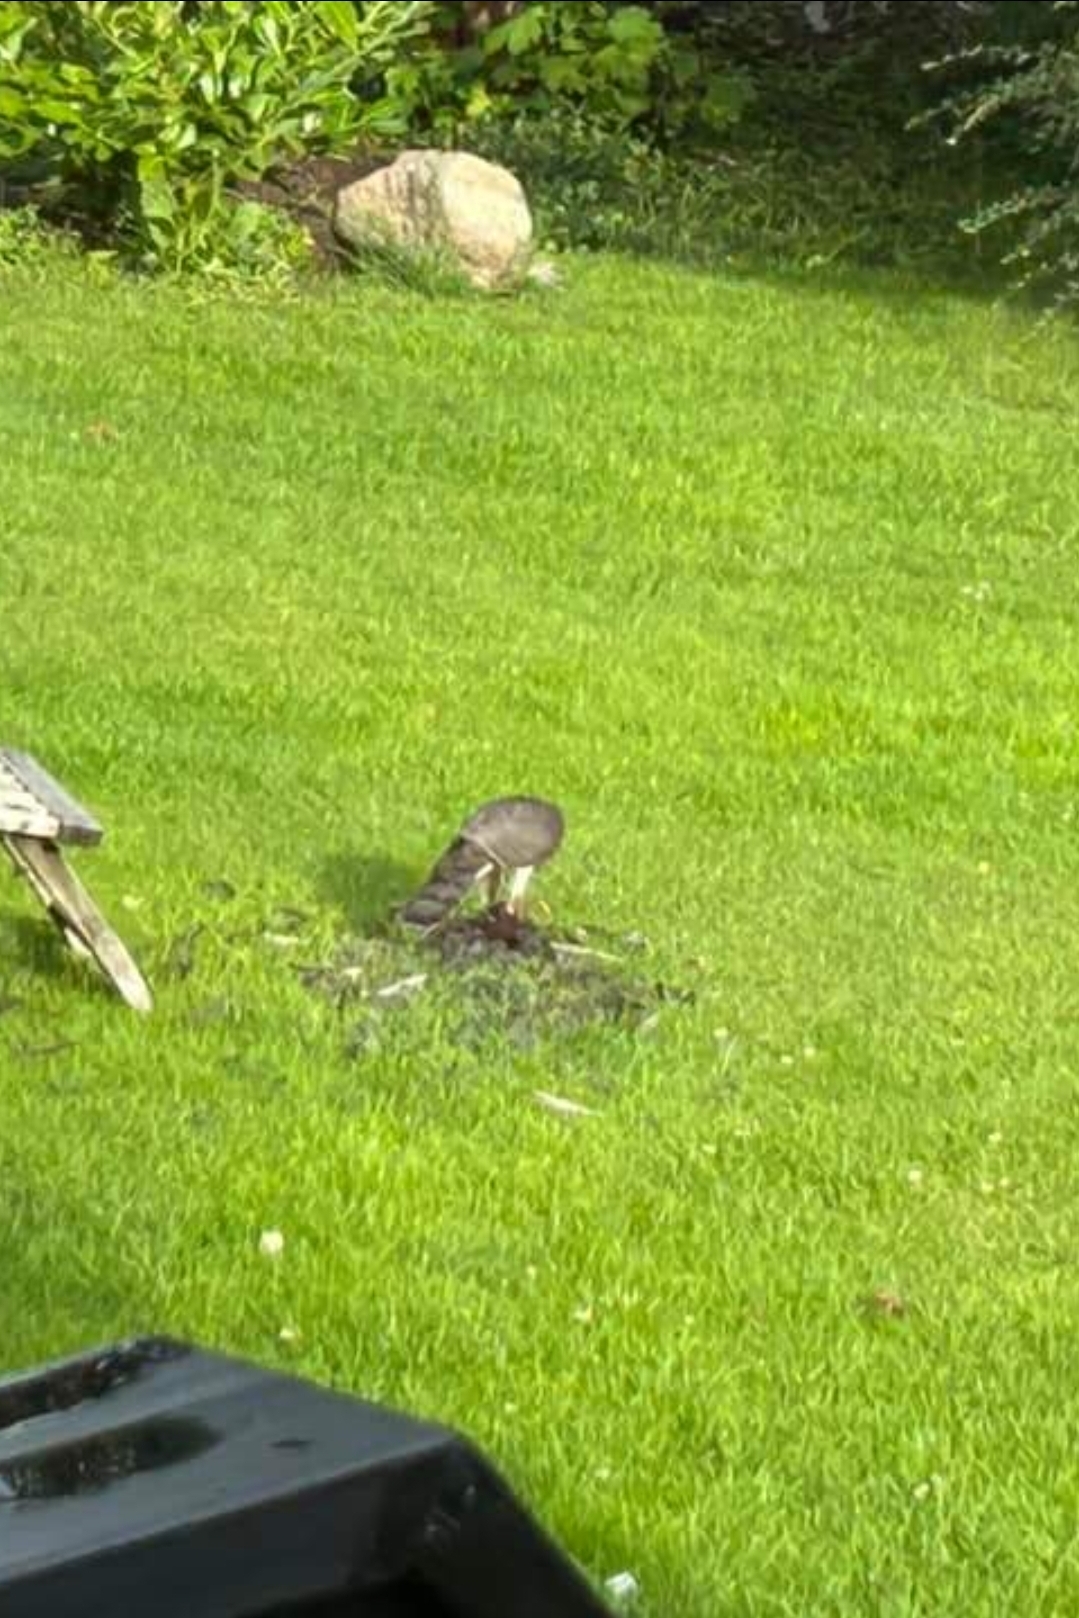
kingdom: Animalia
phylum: Chordata
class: Aves
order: Accipitriformes
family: Accipitridae
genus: Accipiter
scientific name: Accipiter nisus
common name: Spurvehøg
